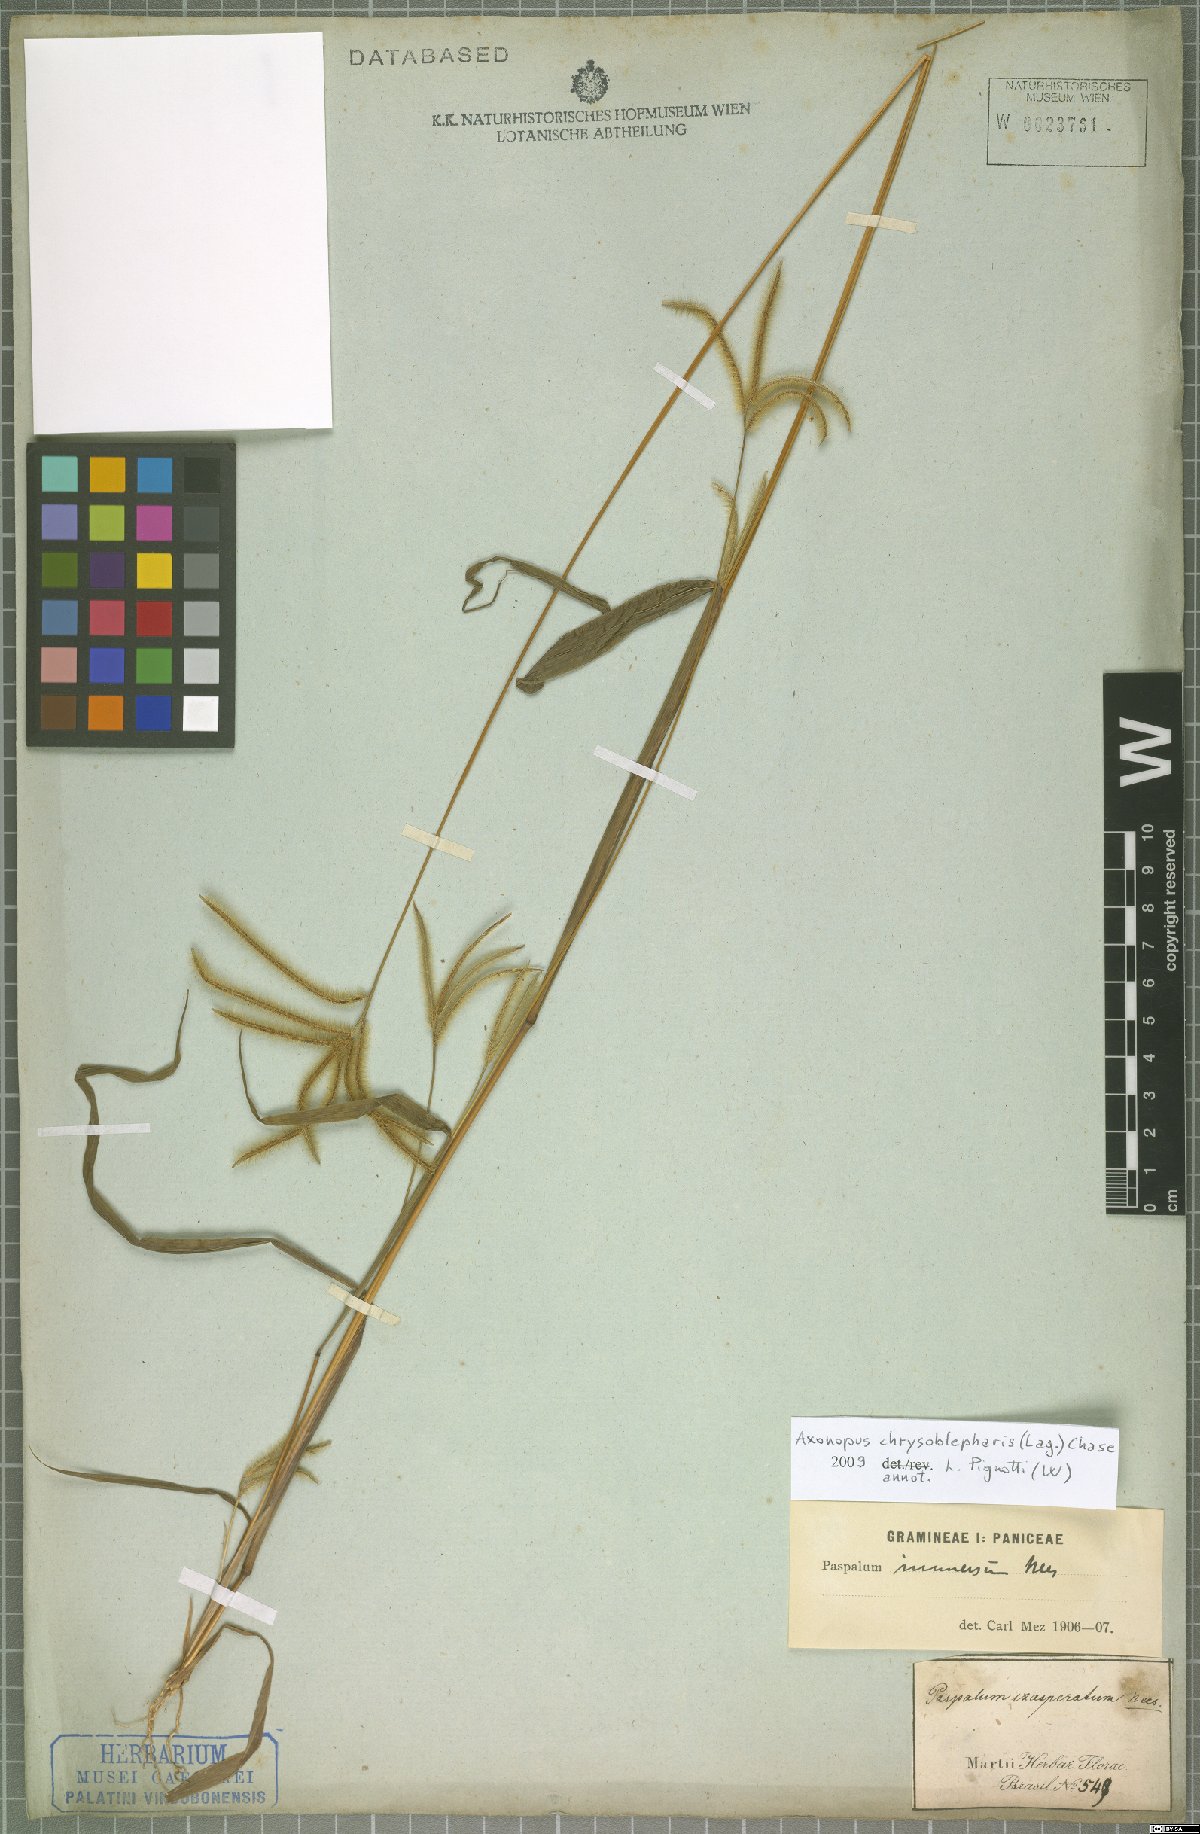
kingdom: Plantae
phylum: Tracheophyta
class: Liliopsida
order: Poales
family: Poaceae
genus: Axonopus
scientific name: Axonopus chrysoblepharis
